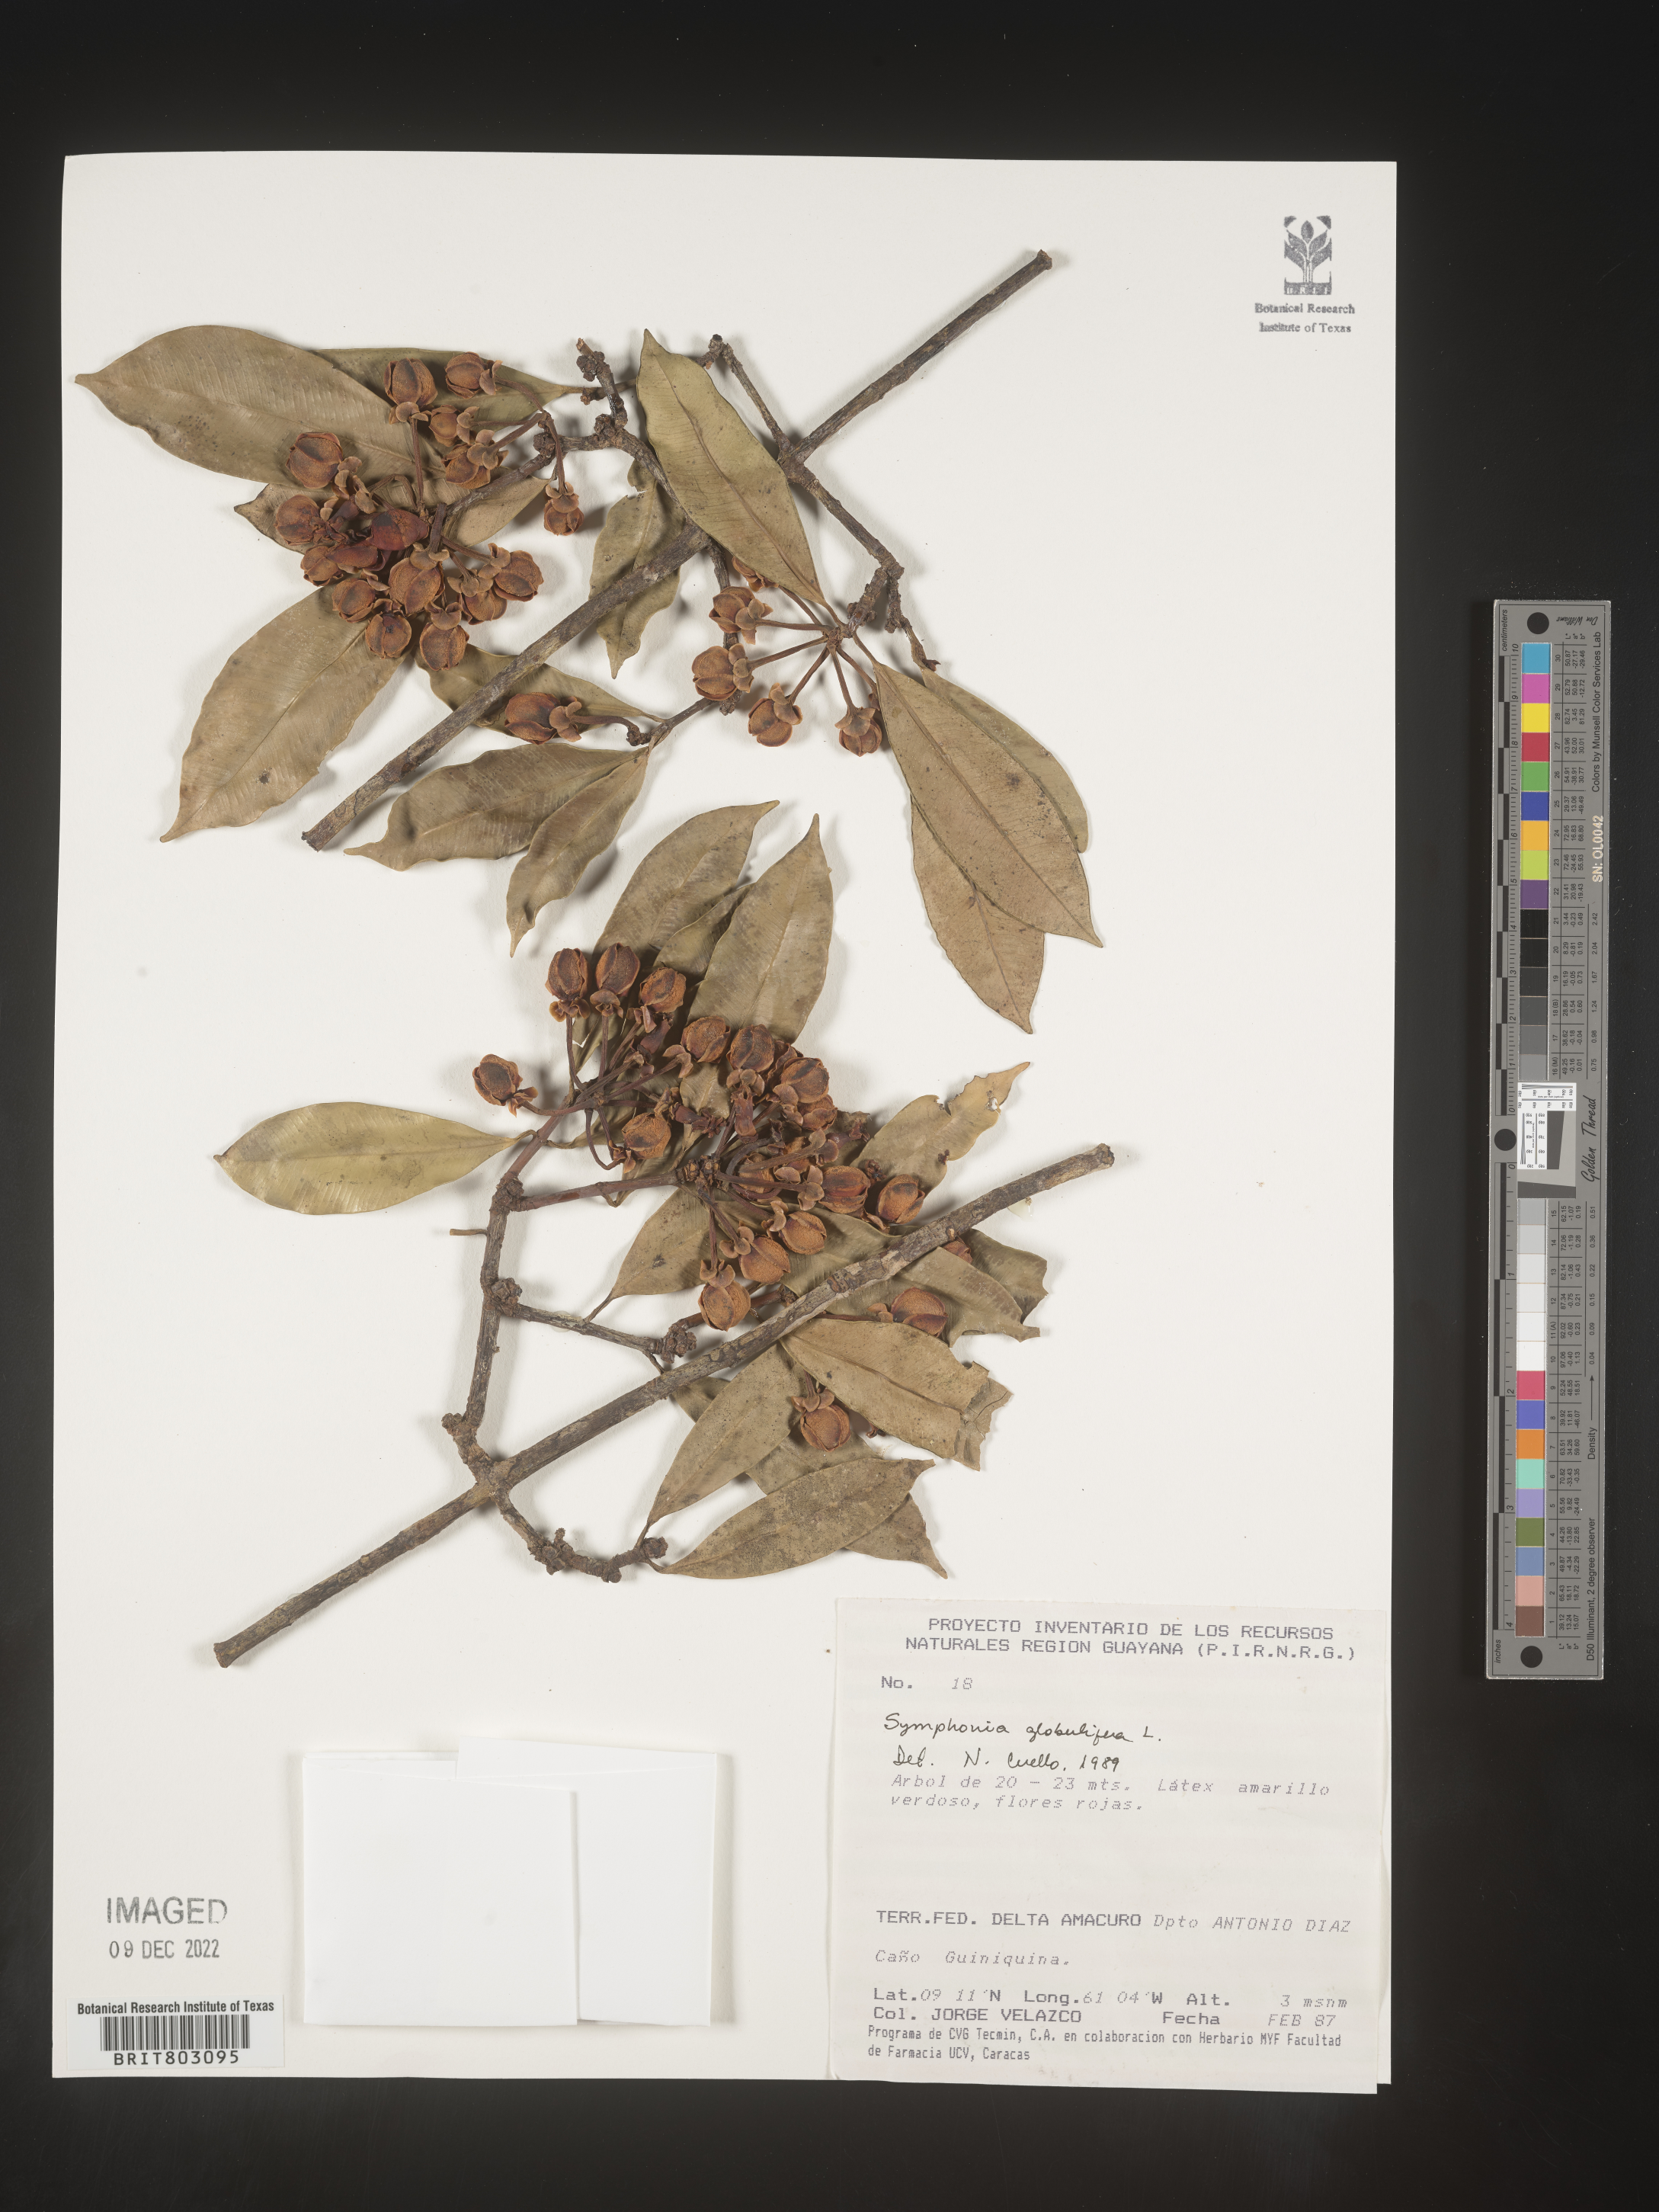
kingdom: Plantae
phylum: Tracheophyta
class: Magnoliopsida
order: Malpighiales
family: Clusiaceae
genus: Symphonia
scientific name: Symphonia
